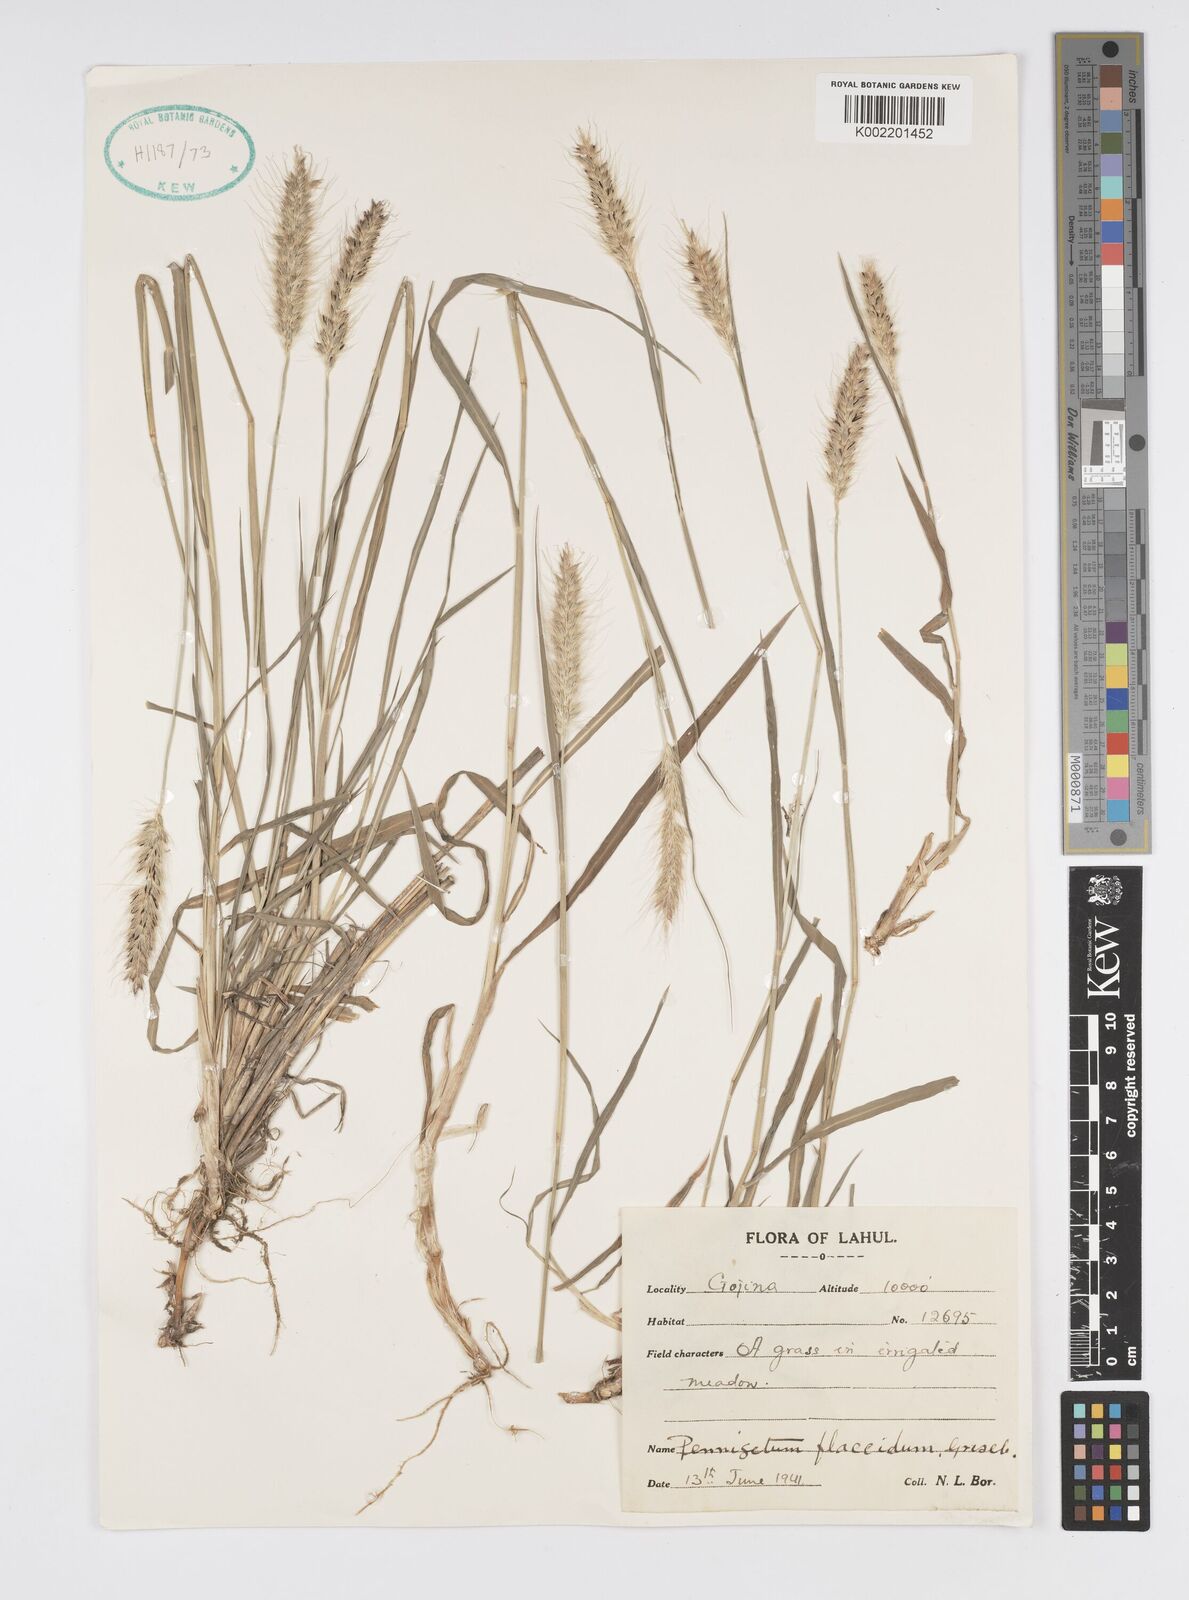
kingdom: Plantae
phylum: Tracheophyta
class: Liliopsida
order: Poales
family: Poaceae
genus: Cenchrus
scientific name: Cenchrus flaccidus
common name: Flaccid grass
